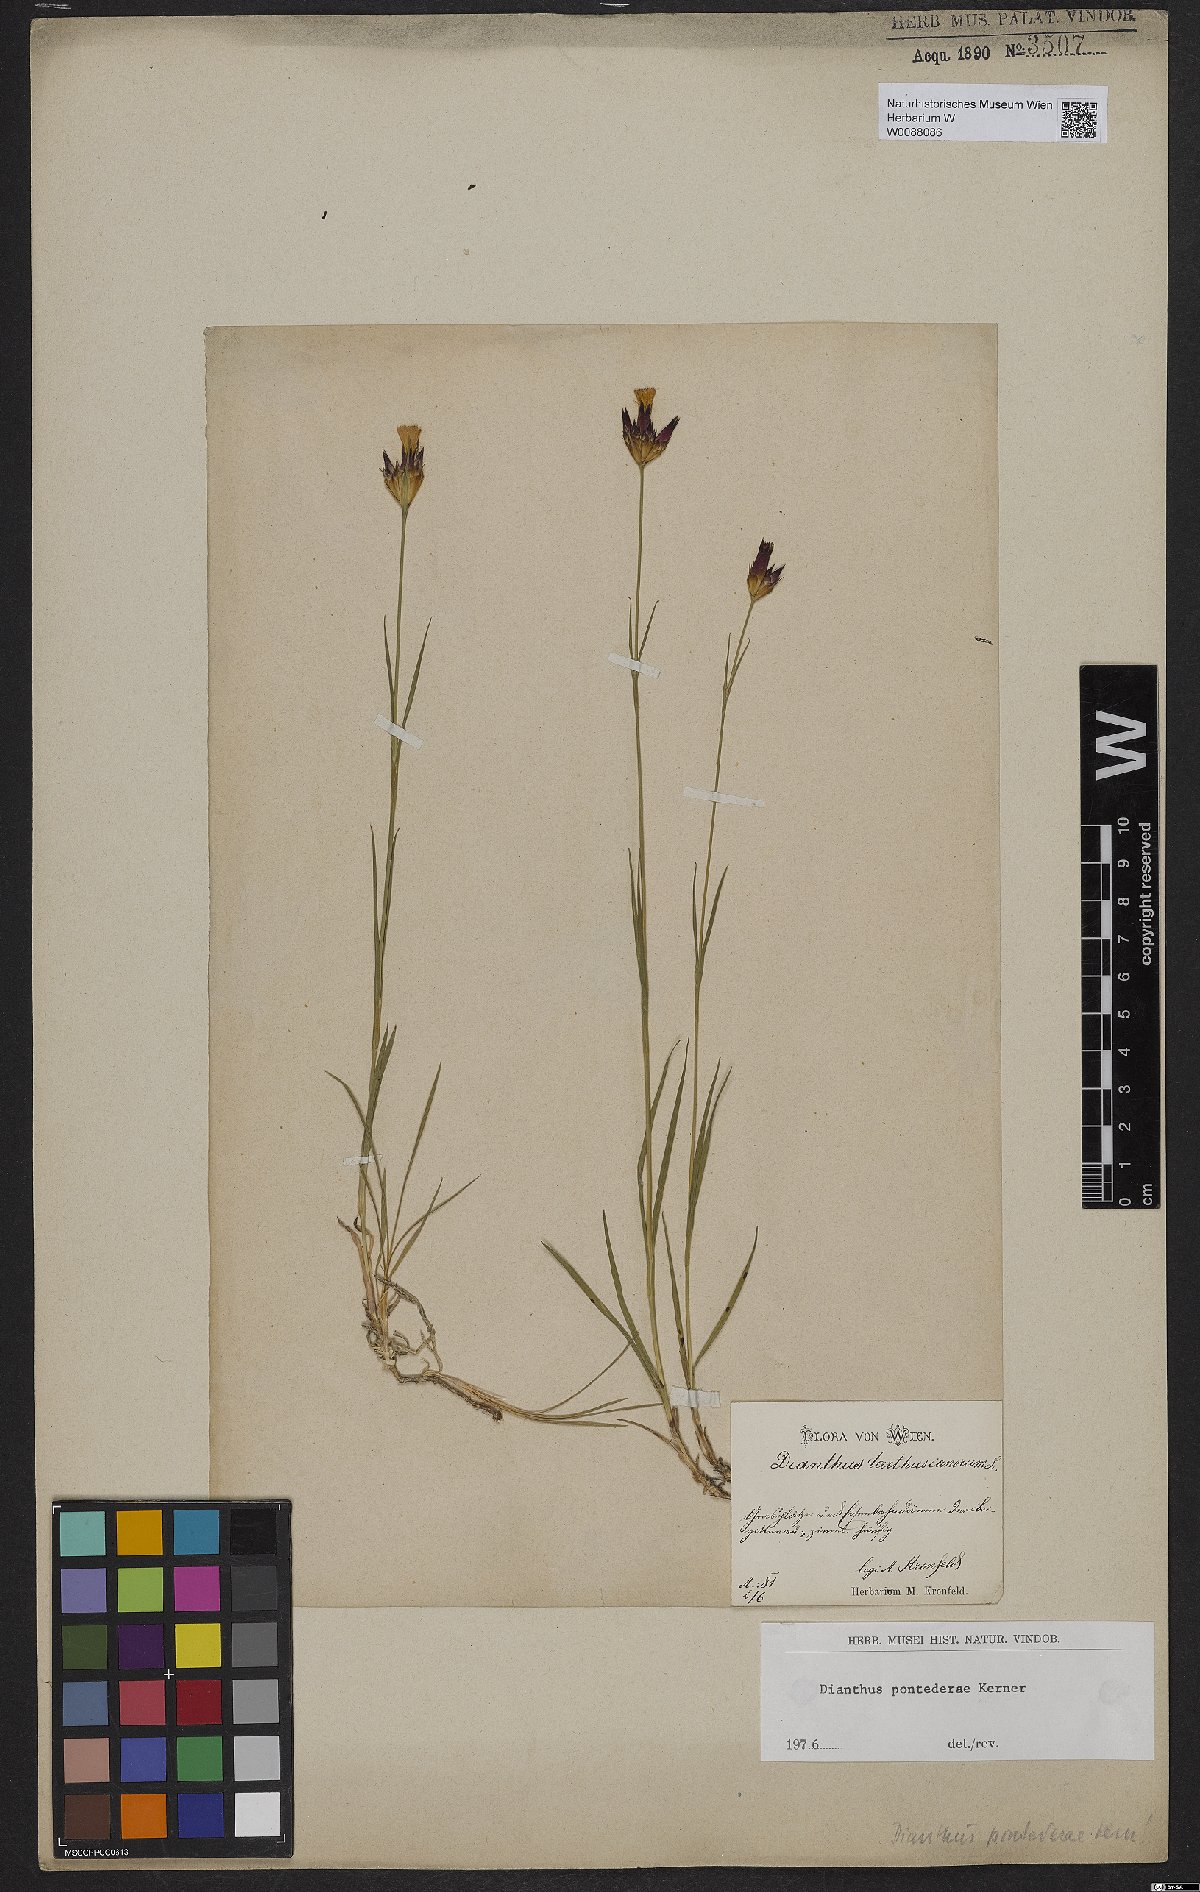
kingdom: Plantae
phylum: Tracheophyta
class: Magnoliopsida
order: Caryophyllales
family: Caryophyllaceae
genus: Dianthus
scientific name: Dianthus pontederae
